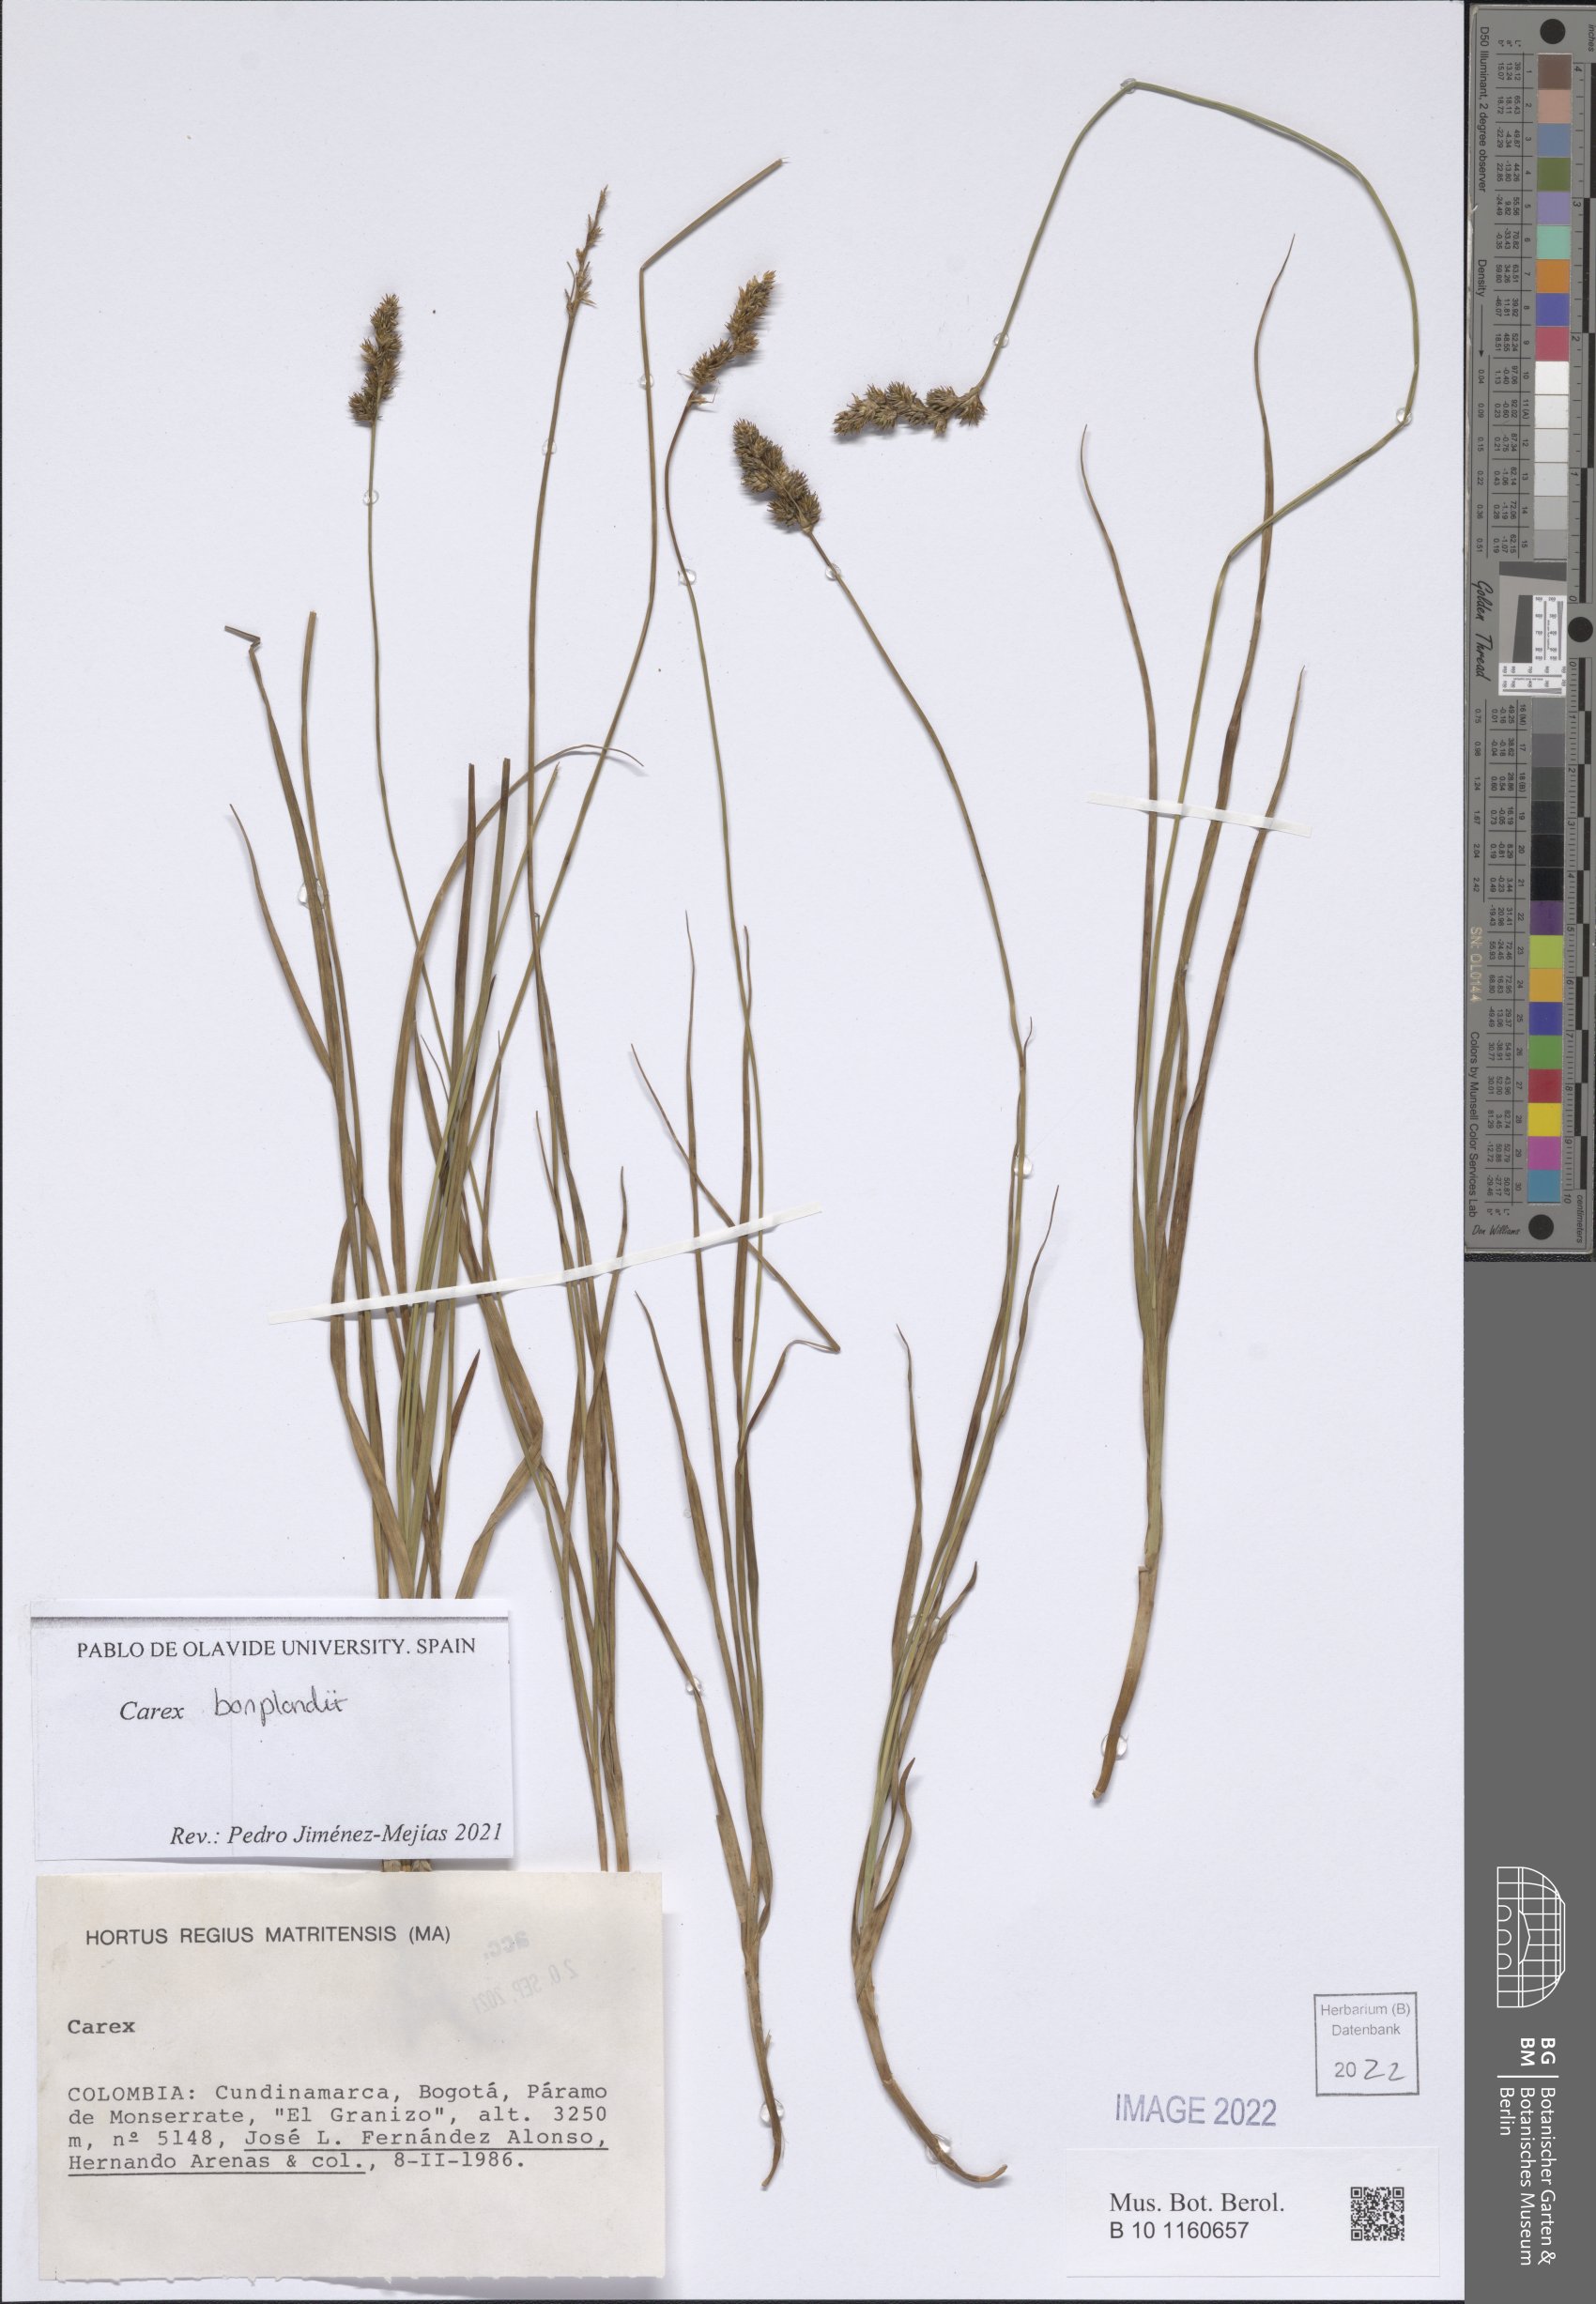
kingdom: Plantae
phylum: Tracheophyta
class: Liliopsida
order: Poales
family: Cyperaceae
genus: Carex
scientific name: Carex bonplandii
